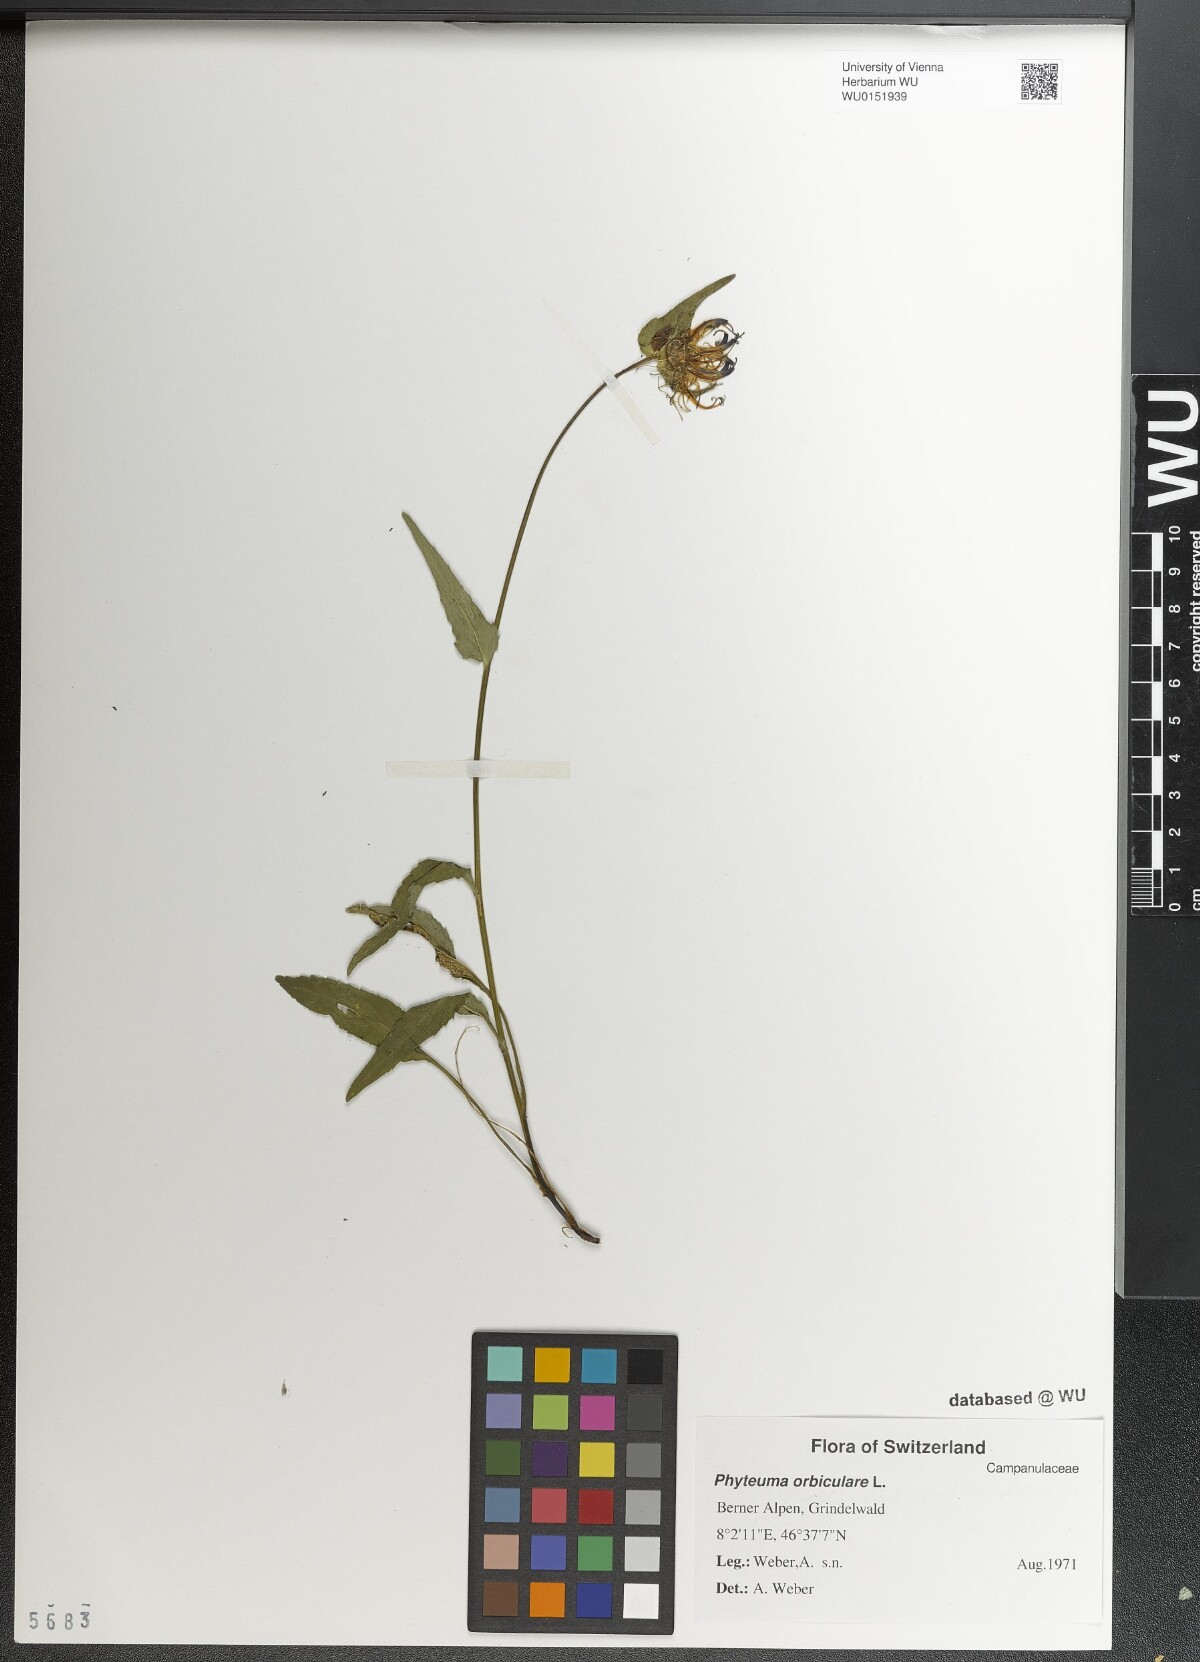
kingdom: Plantae
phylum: Tracheophyta
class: Magnoliopsida
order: Asterales
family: Campanulaceae
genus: Phyteuma
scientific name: Phyteuma orbiculare
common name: Round-headed rampion
